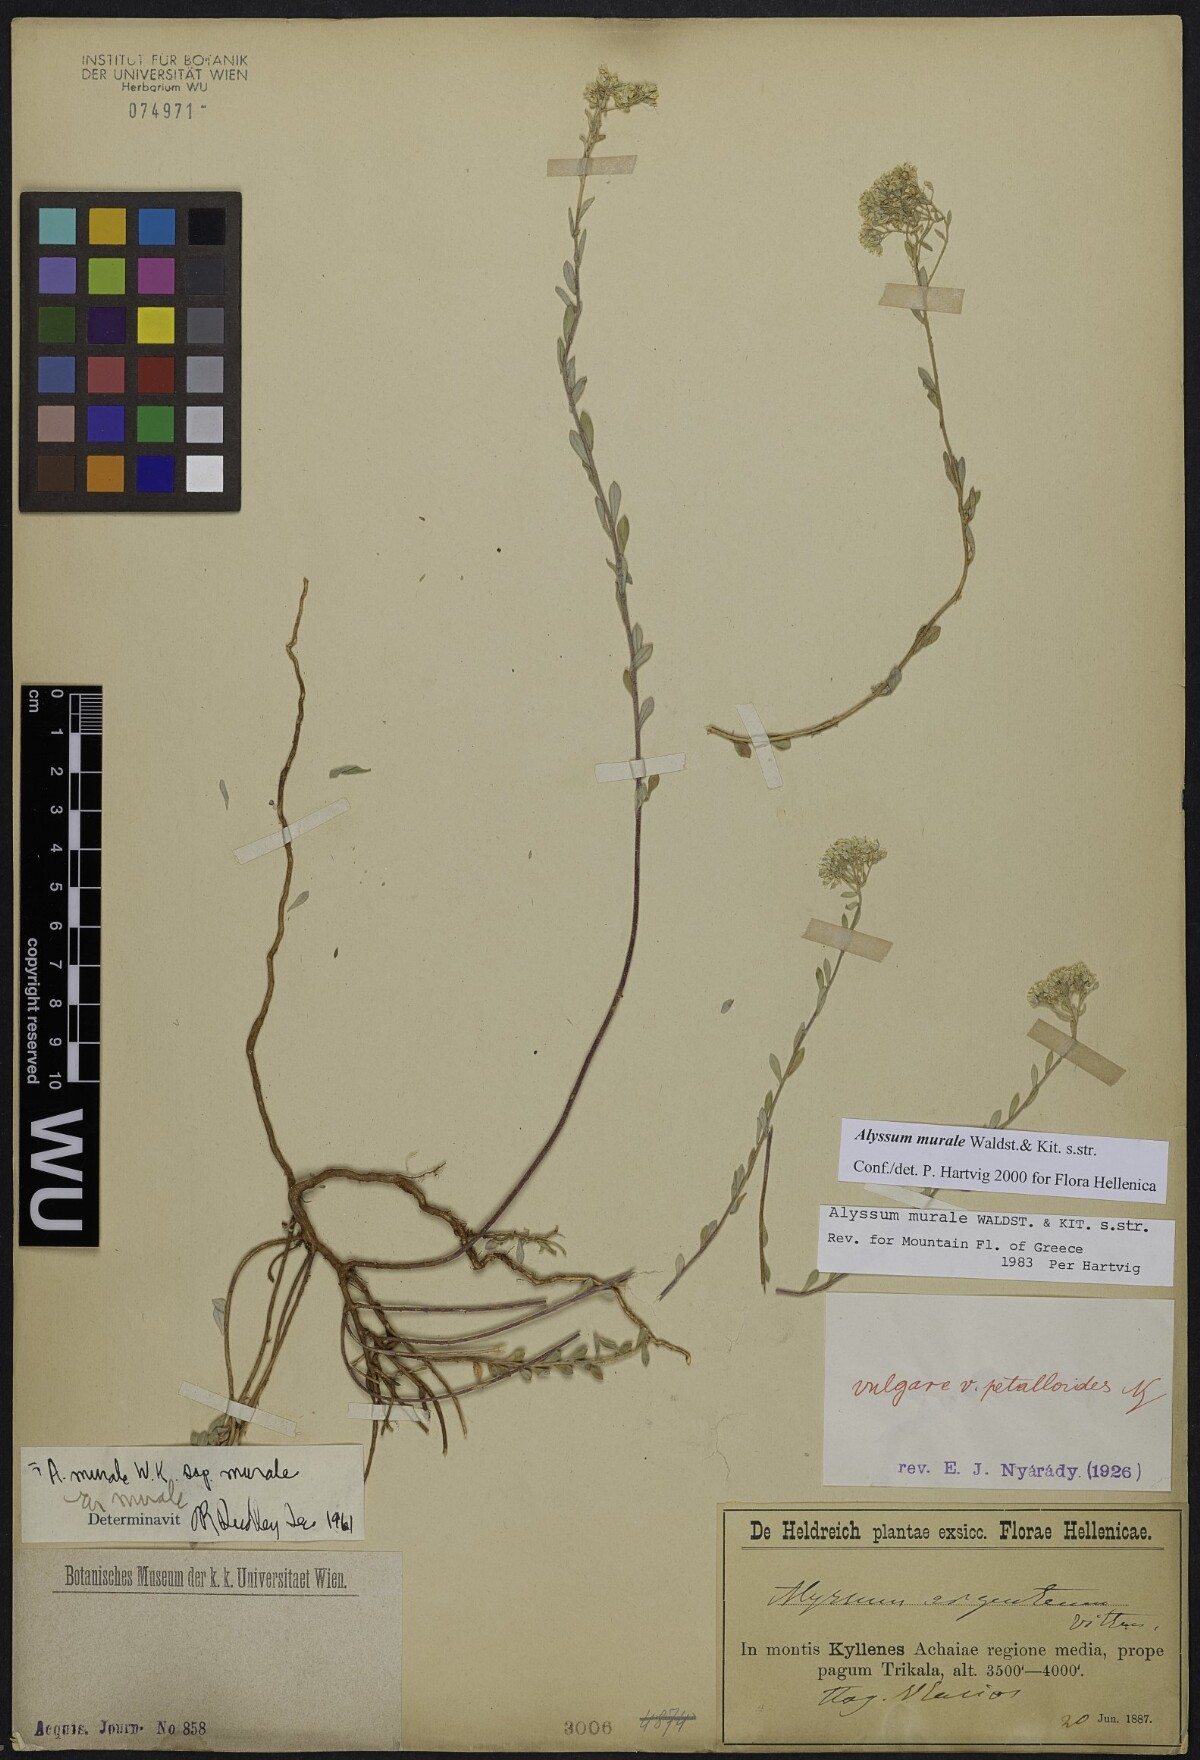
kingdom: Plantae
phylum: Tracheophyta
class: Magnoliopsida
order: Brassicales
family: Brassicaceae
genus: Odontarrhena
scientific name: Odontarrhena muralis
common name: Rock alyssum
